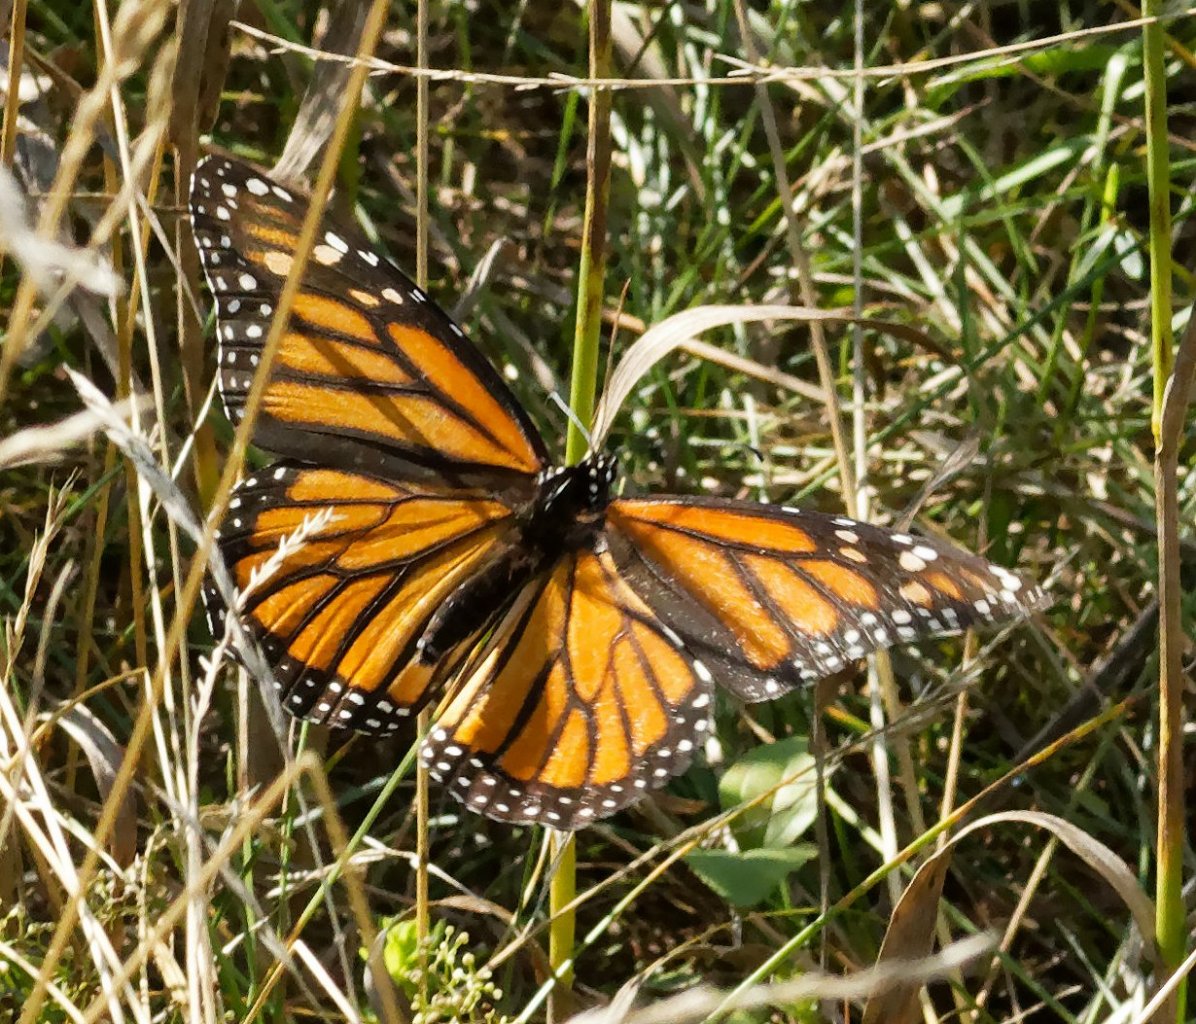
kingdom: Animalia
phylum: Arthropoda
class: Insecta
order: Lepidoptera
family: Nymphalidae
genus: Danaus
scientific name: Danaus plexippus
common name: Monarch
